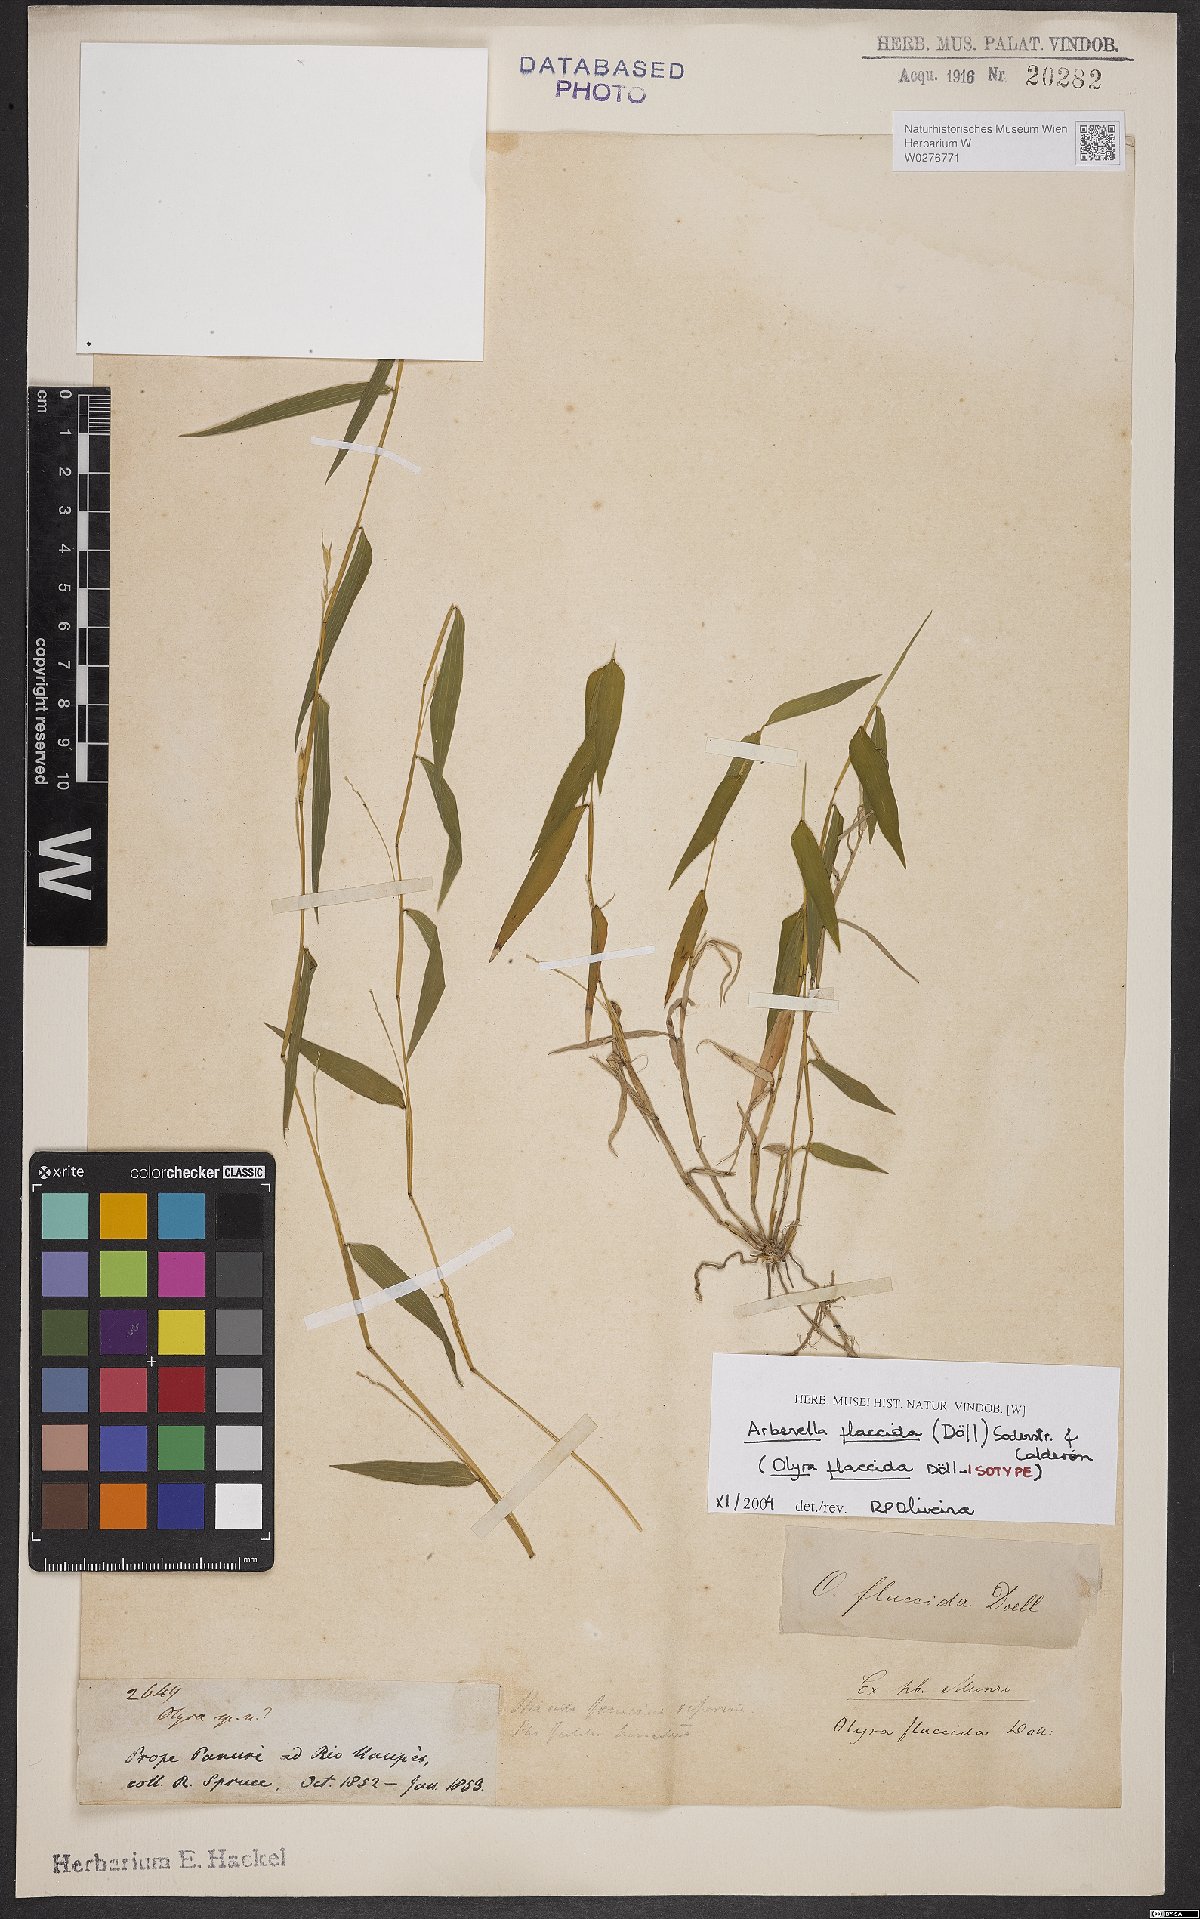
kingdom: Plantae
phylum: Tracheophyta
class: Liliopsida
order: Poales
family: Poaceae
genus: Arberella
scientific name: Arberella flaccida
